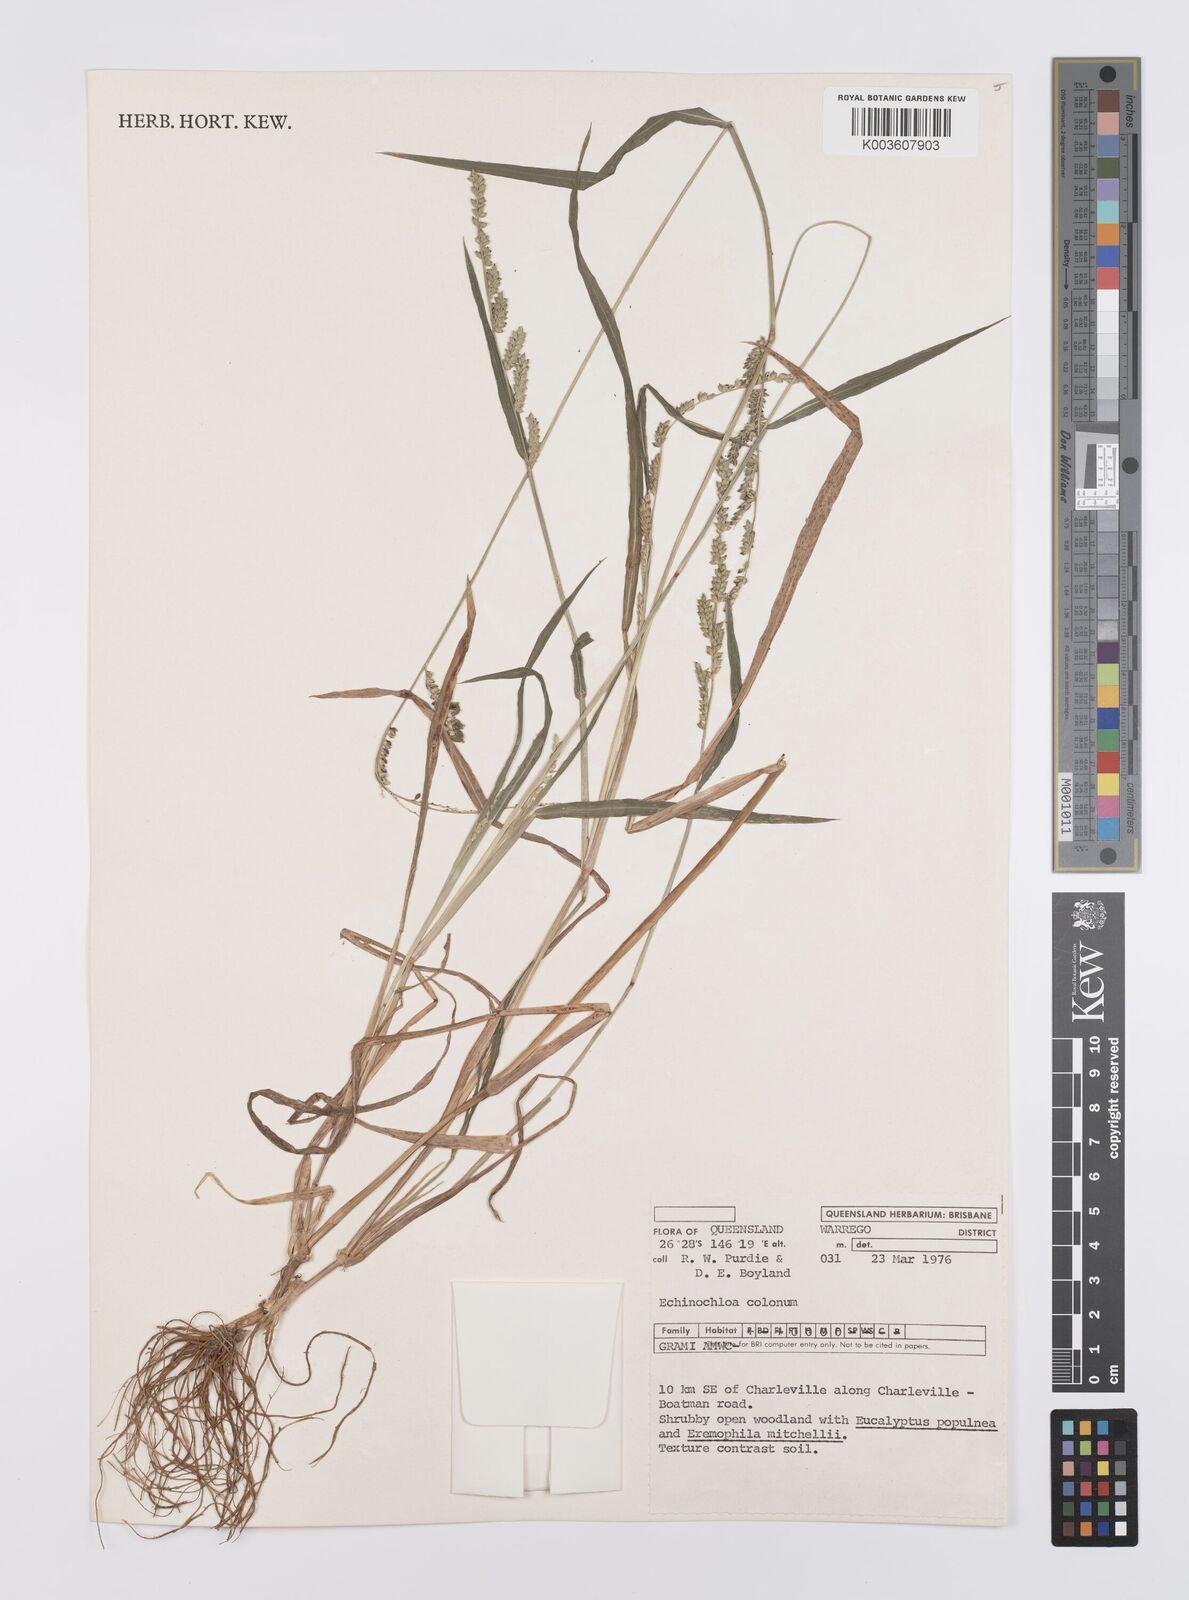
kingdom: Plantae
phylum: Tracheophyta
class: Liliopsida
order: Poales
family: Poaceae
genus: Echinochloa
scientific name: Echinochloa colonum
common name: Jungle rice
